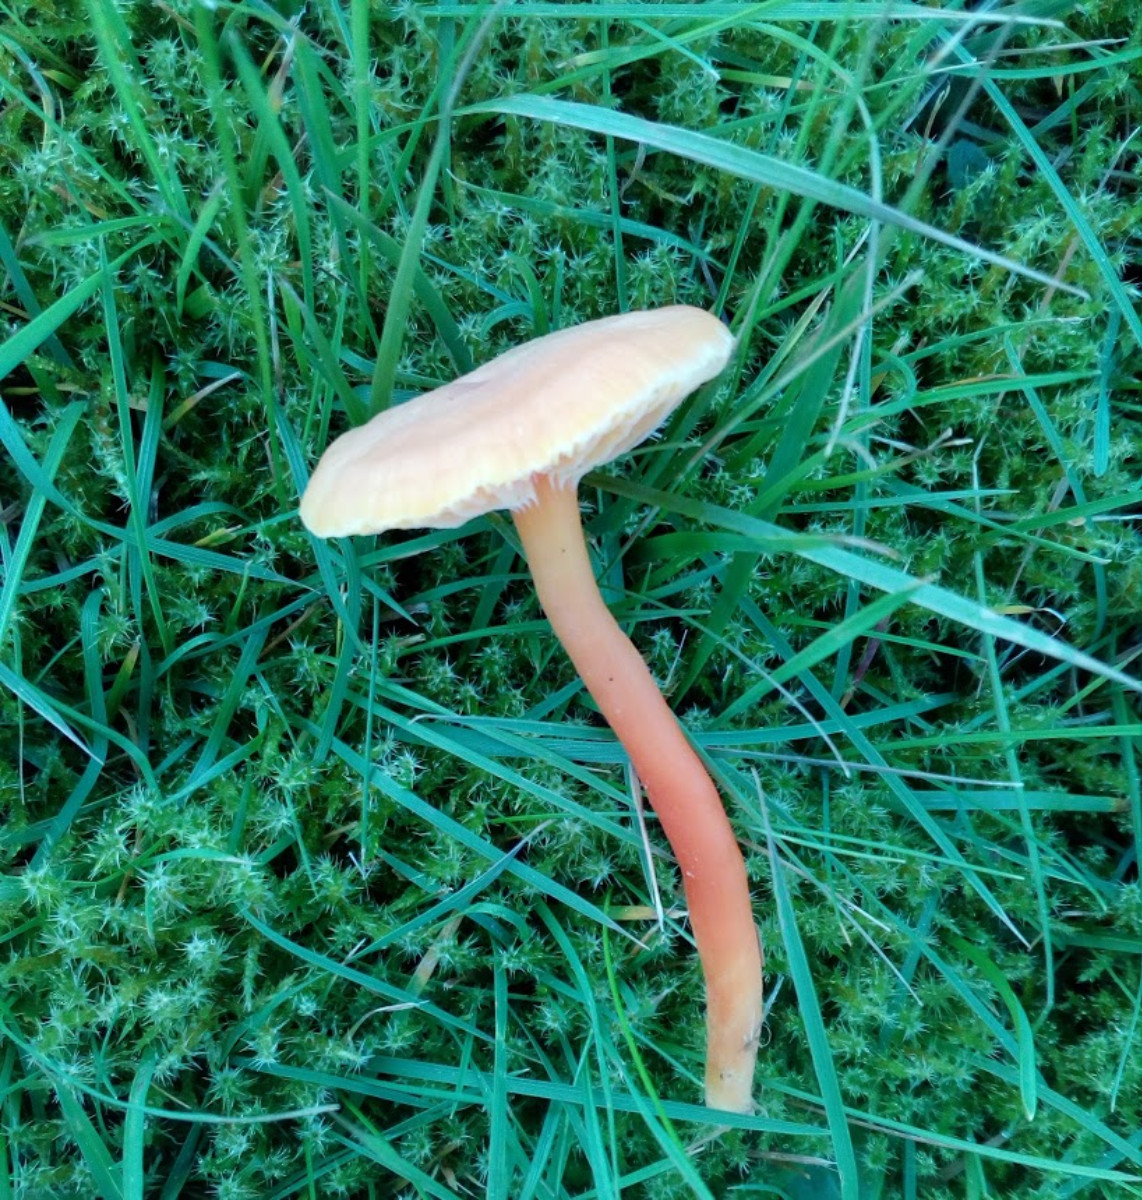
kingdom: Fungi
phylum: Basidiomycota
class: Agaricomycetes
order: Agaricales
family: Hygrophoraceae
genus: Hygrocybe
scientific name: Hygrocybe miniata
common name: mønje-vokshat
